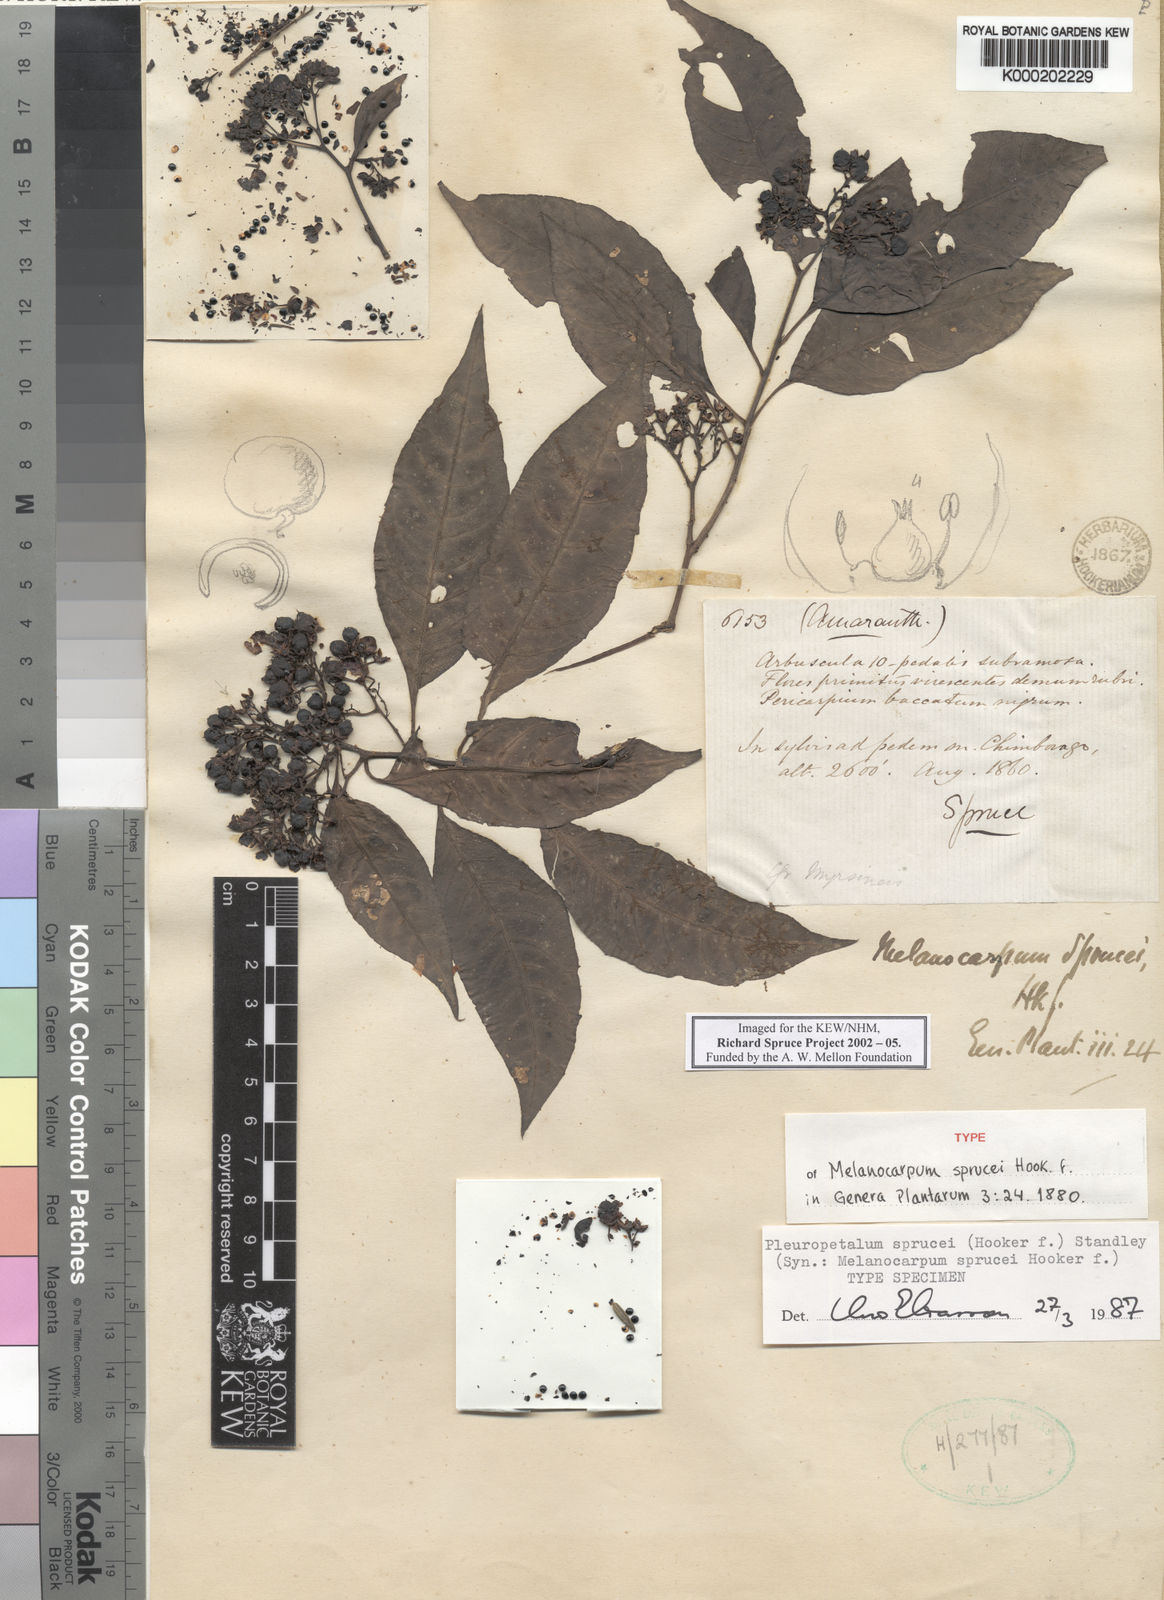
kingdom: Plantae
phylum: Tracheophyta
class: Magnoliopsida
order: Caryophyllales
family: Amaranthaceae
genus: Pleuropetalum
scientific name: Pleuropetalum sprucei
